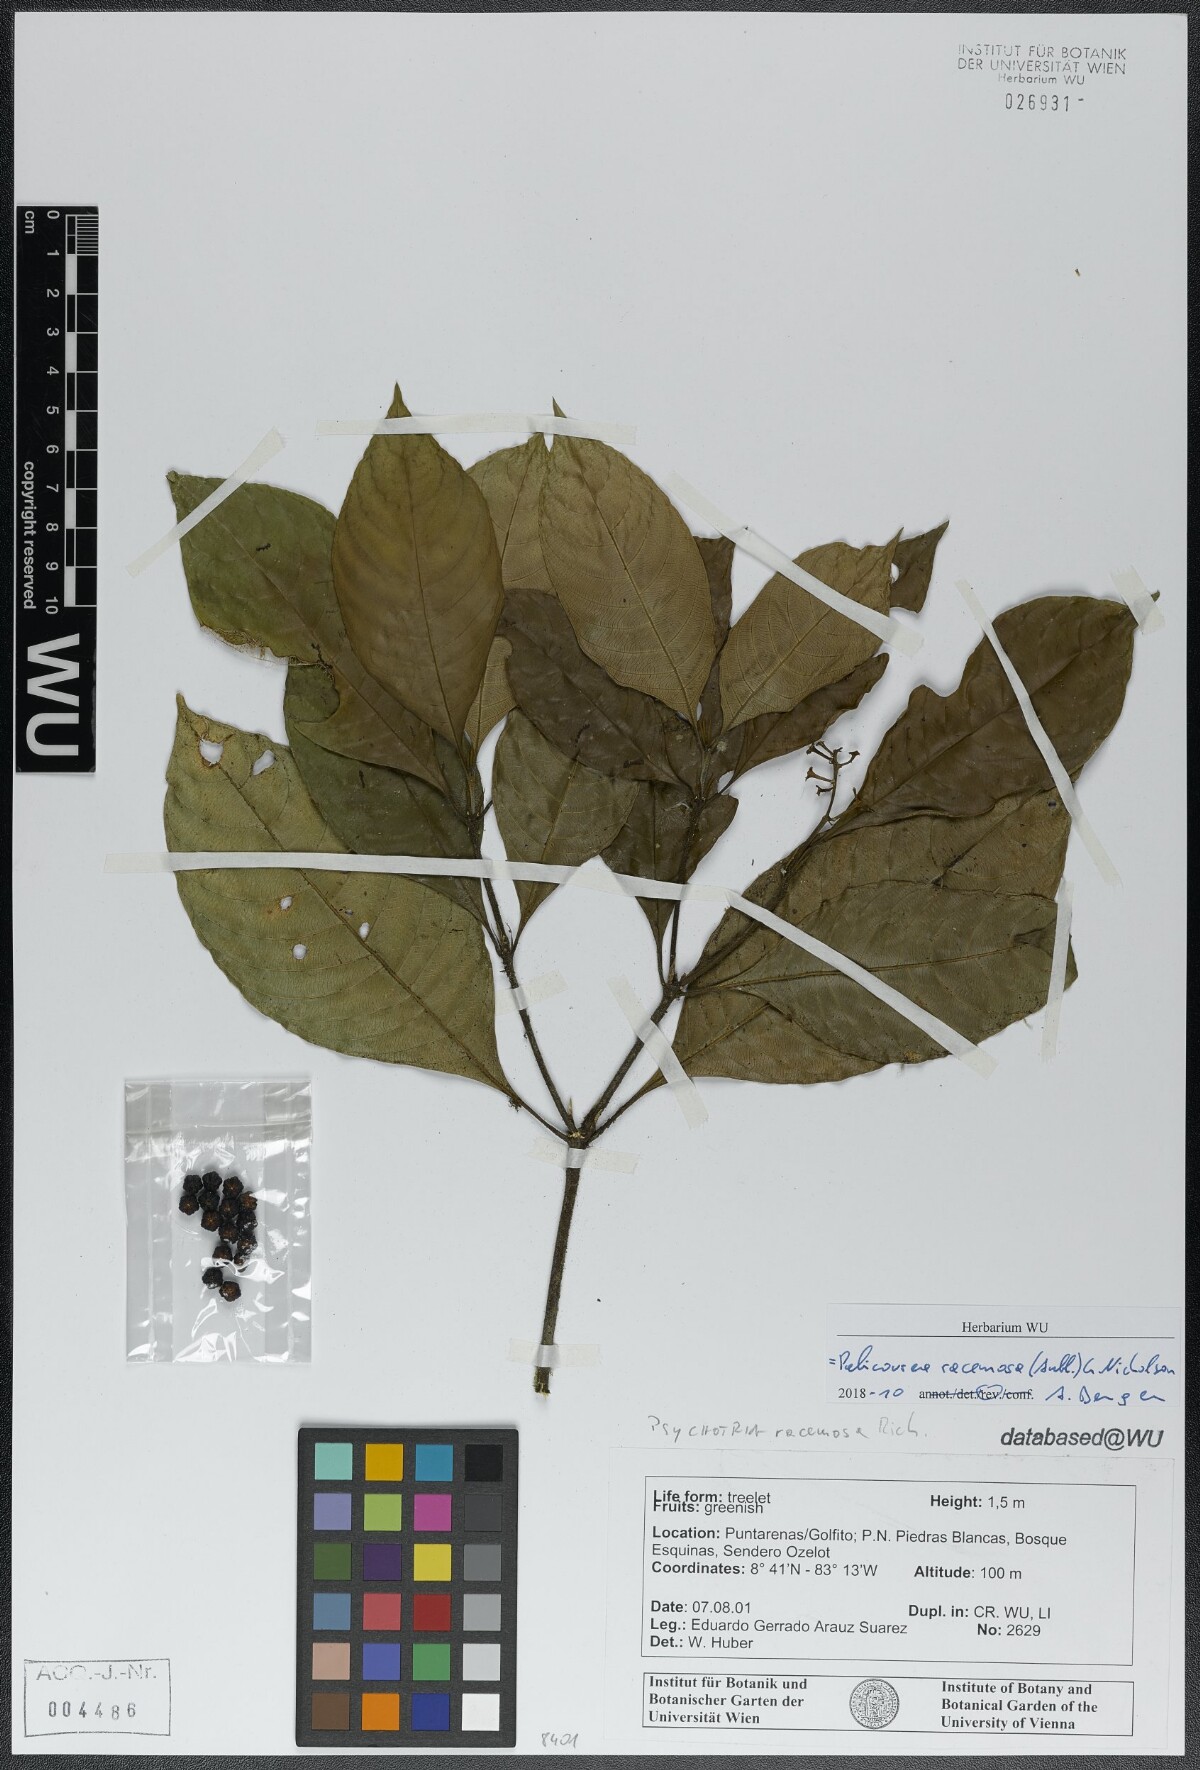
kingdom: Plantae
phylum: Tracheophyta
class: Magnoliopsida
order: Gentianales
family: Rubiaceae
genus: Palicourea
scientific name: Palicourea racemosa
